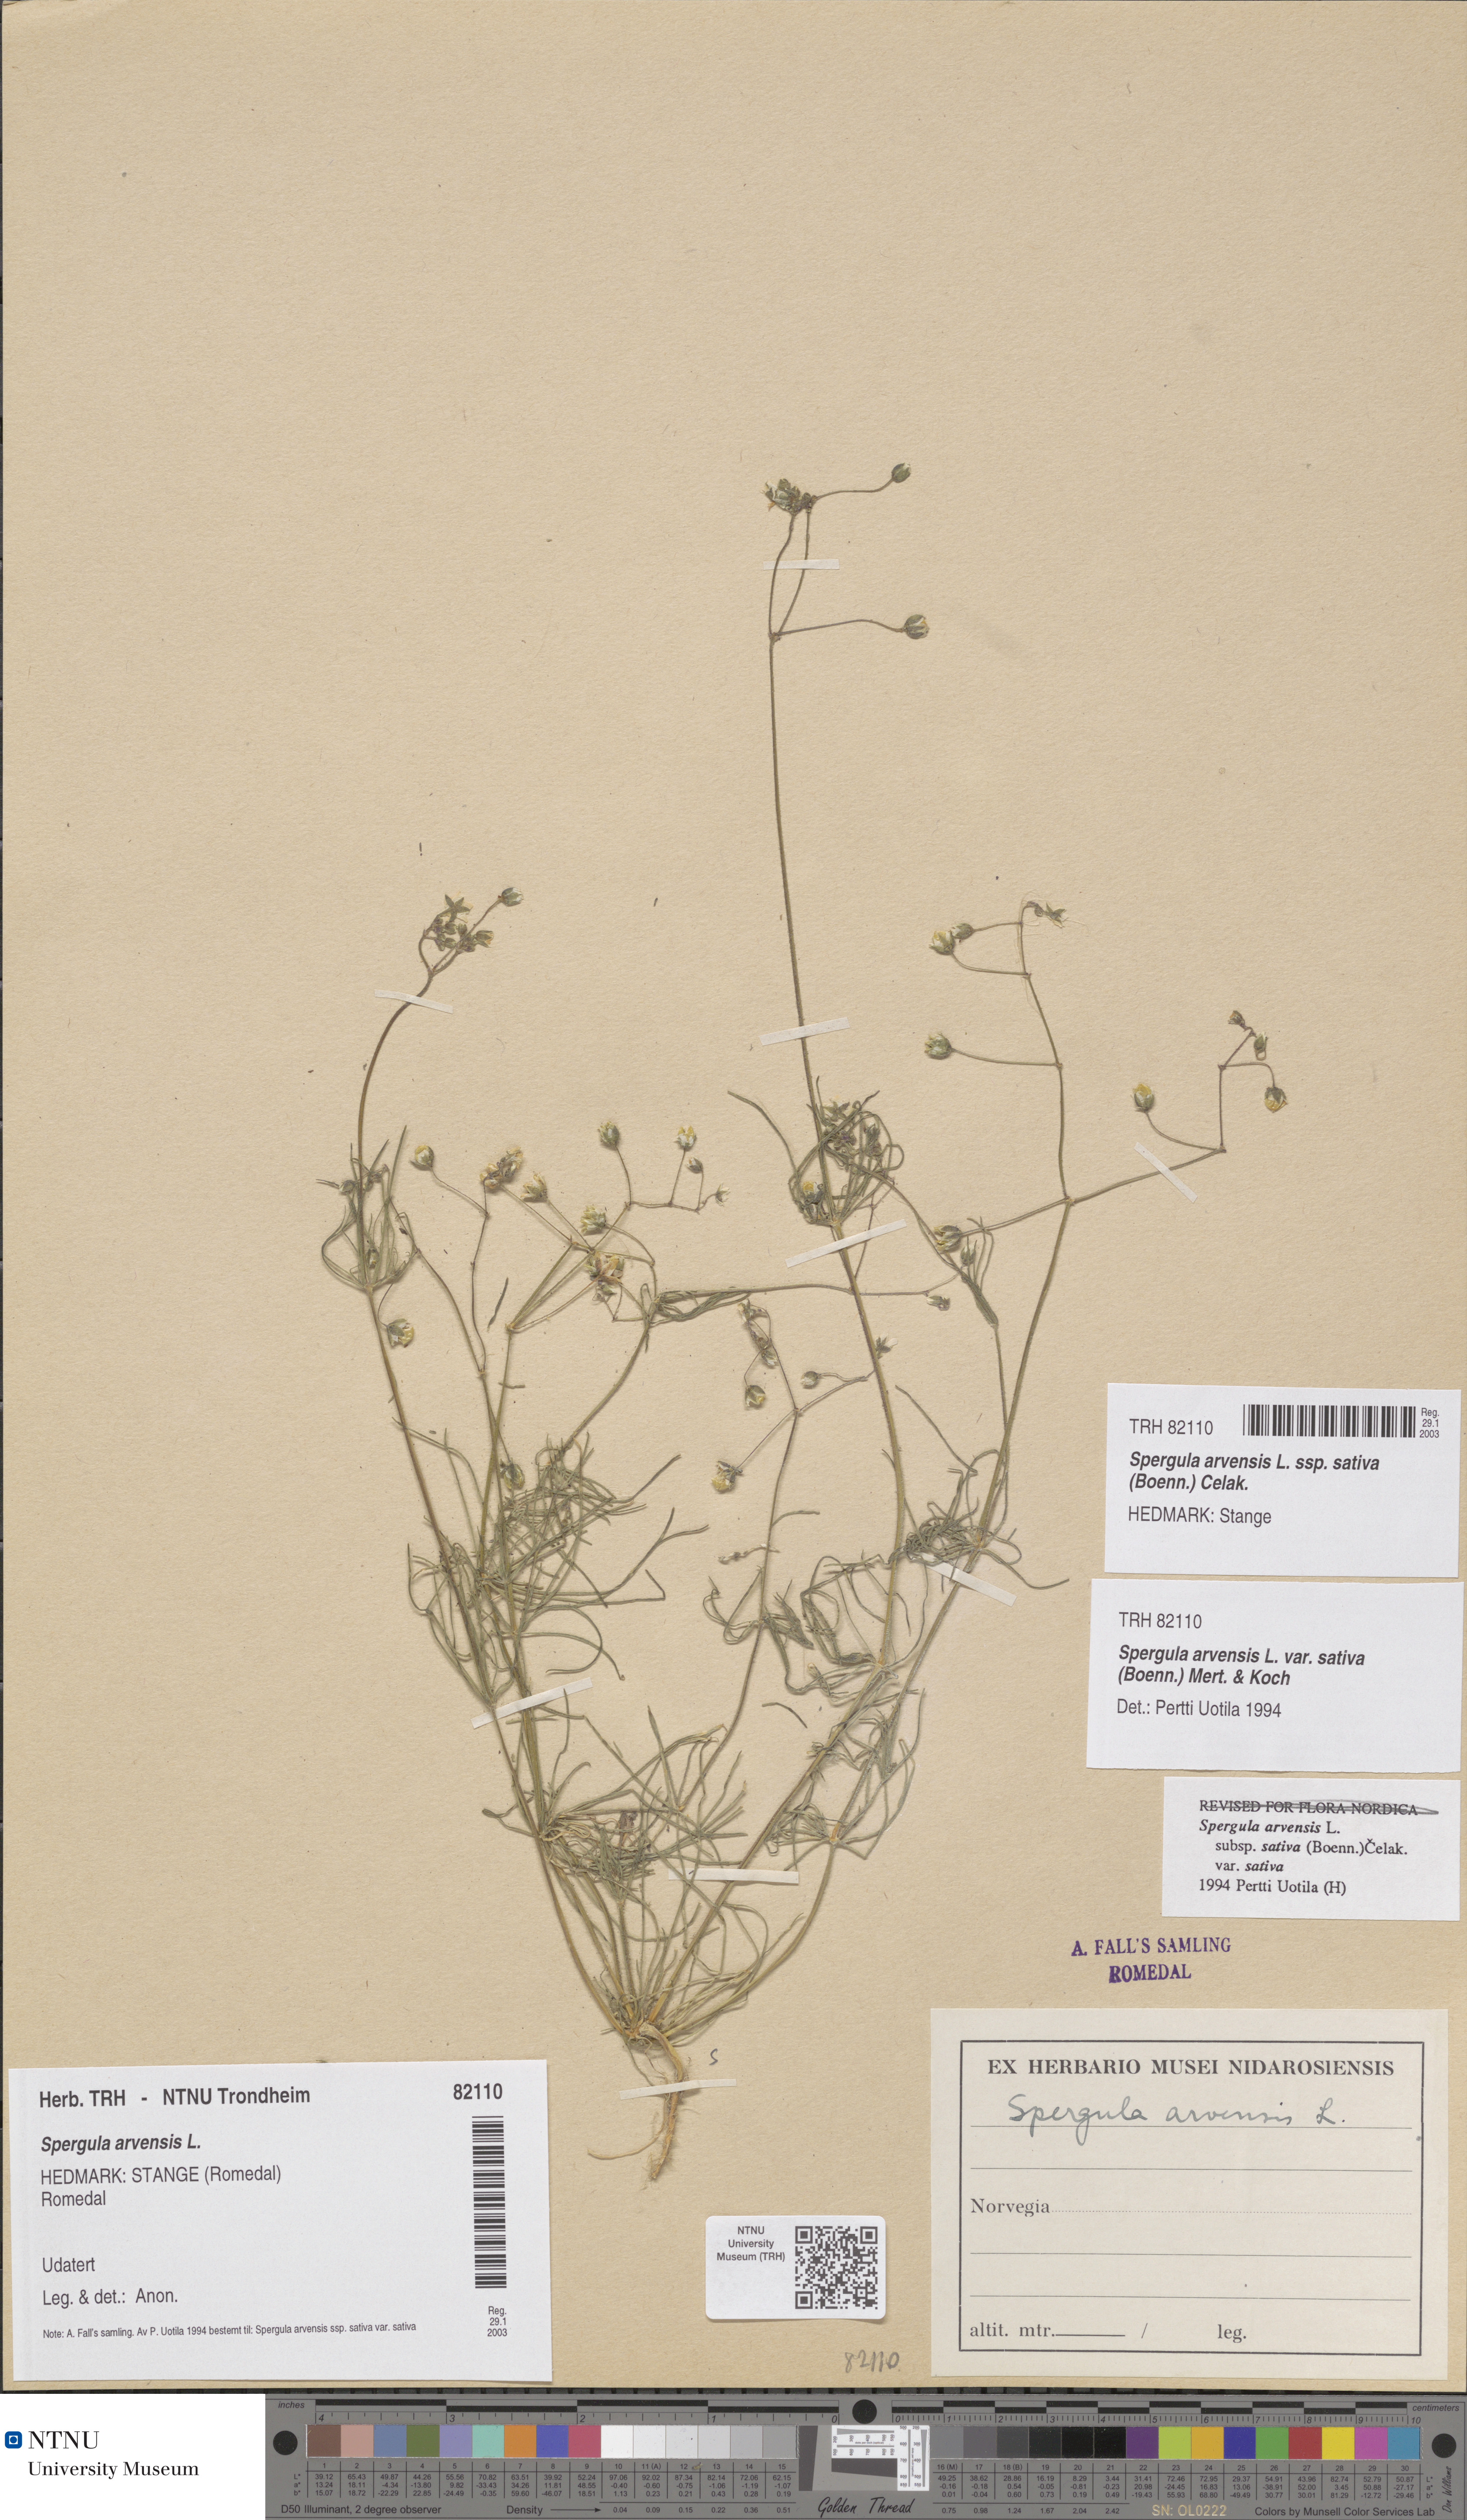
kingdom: Plantae
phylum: Tracheophyta
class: Magnoliopsida
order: Caryophyllales
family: Caryophyllaceae
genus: Spergula
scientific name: Spergula arvensis
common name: Corn spurrey
